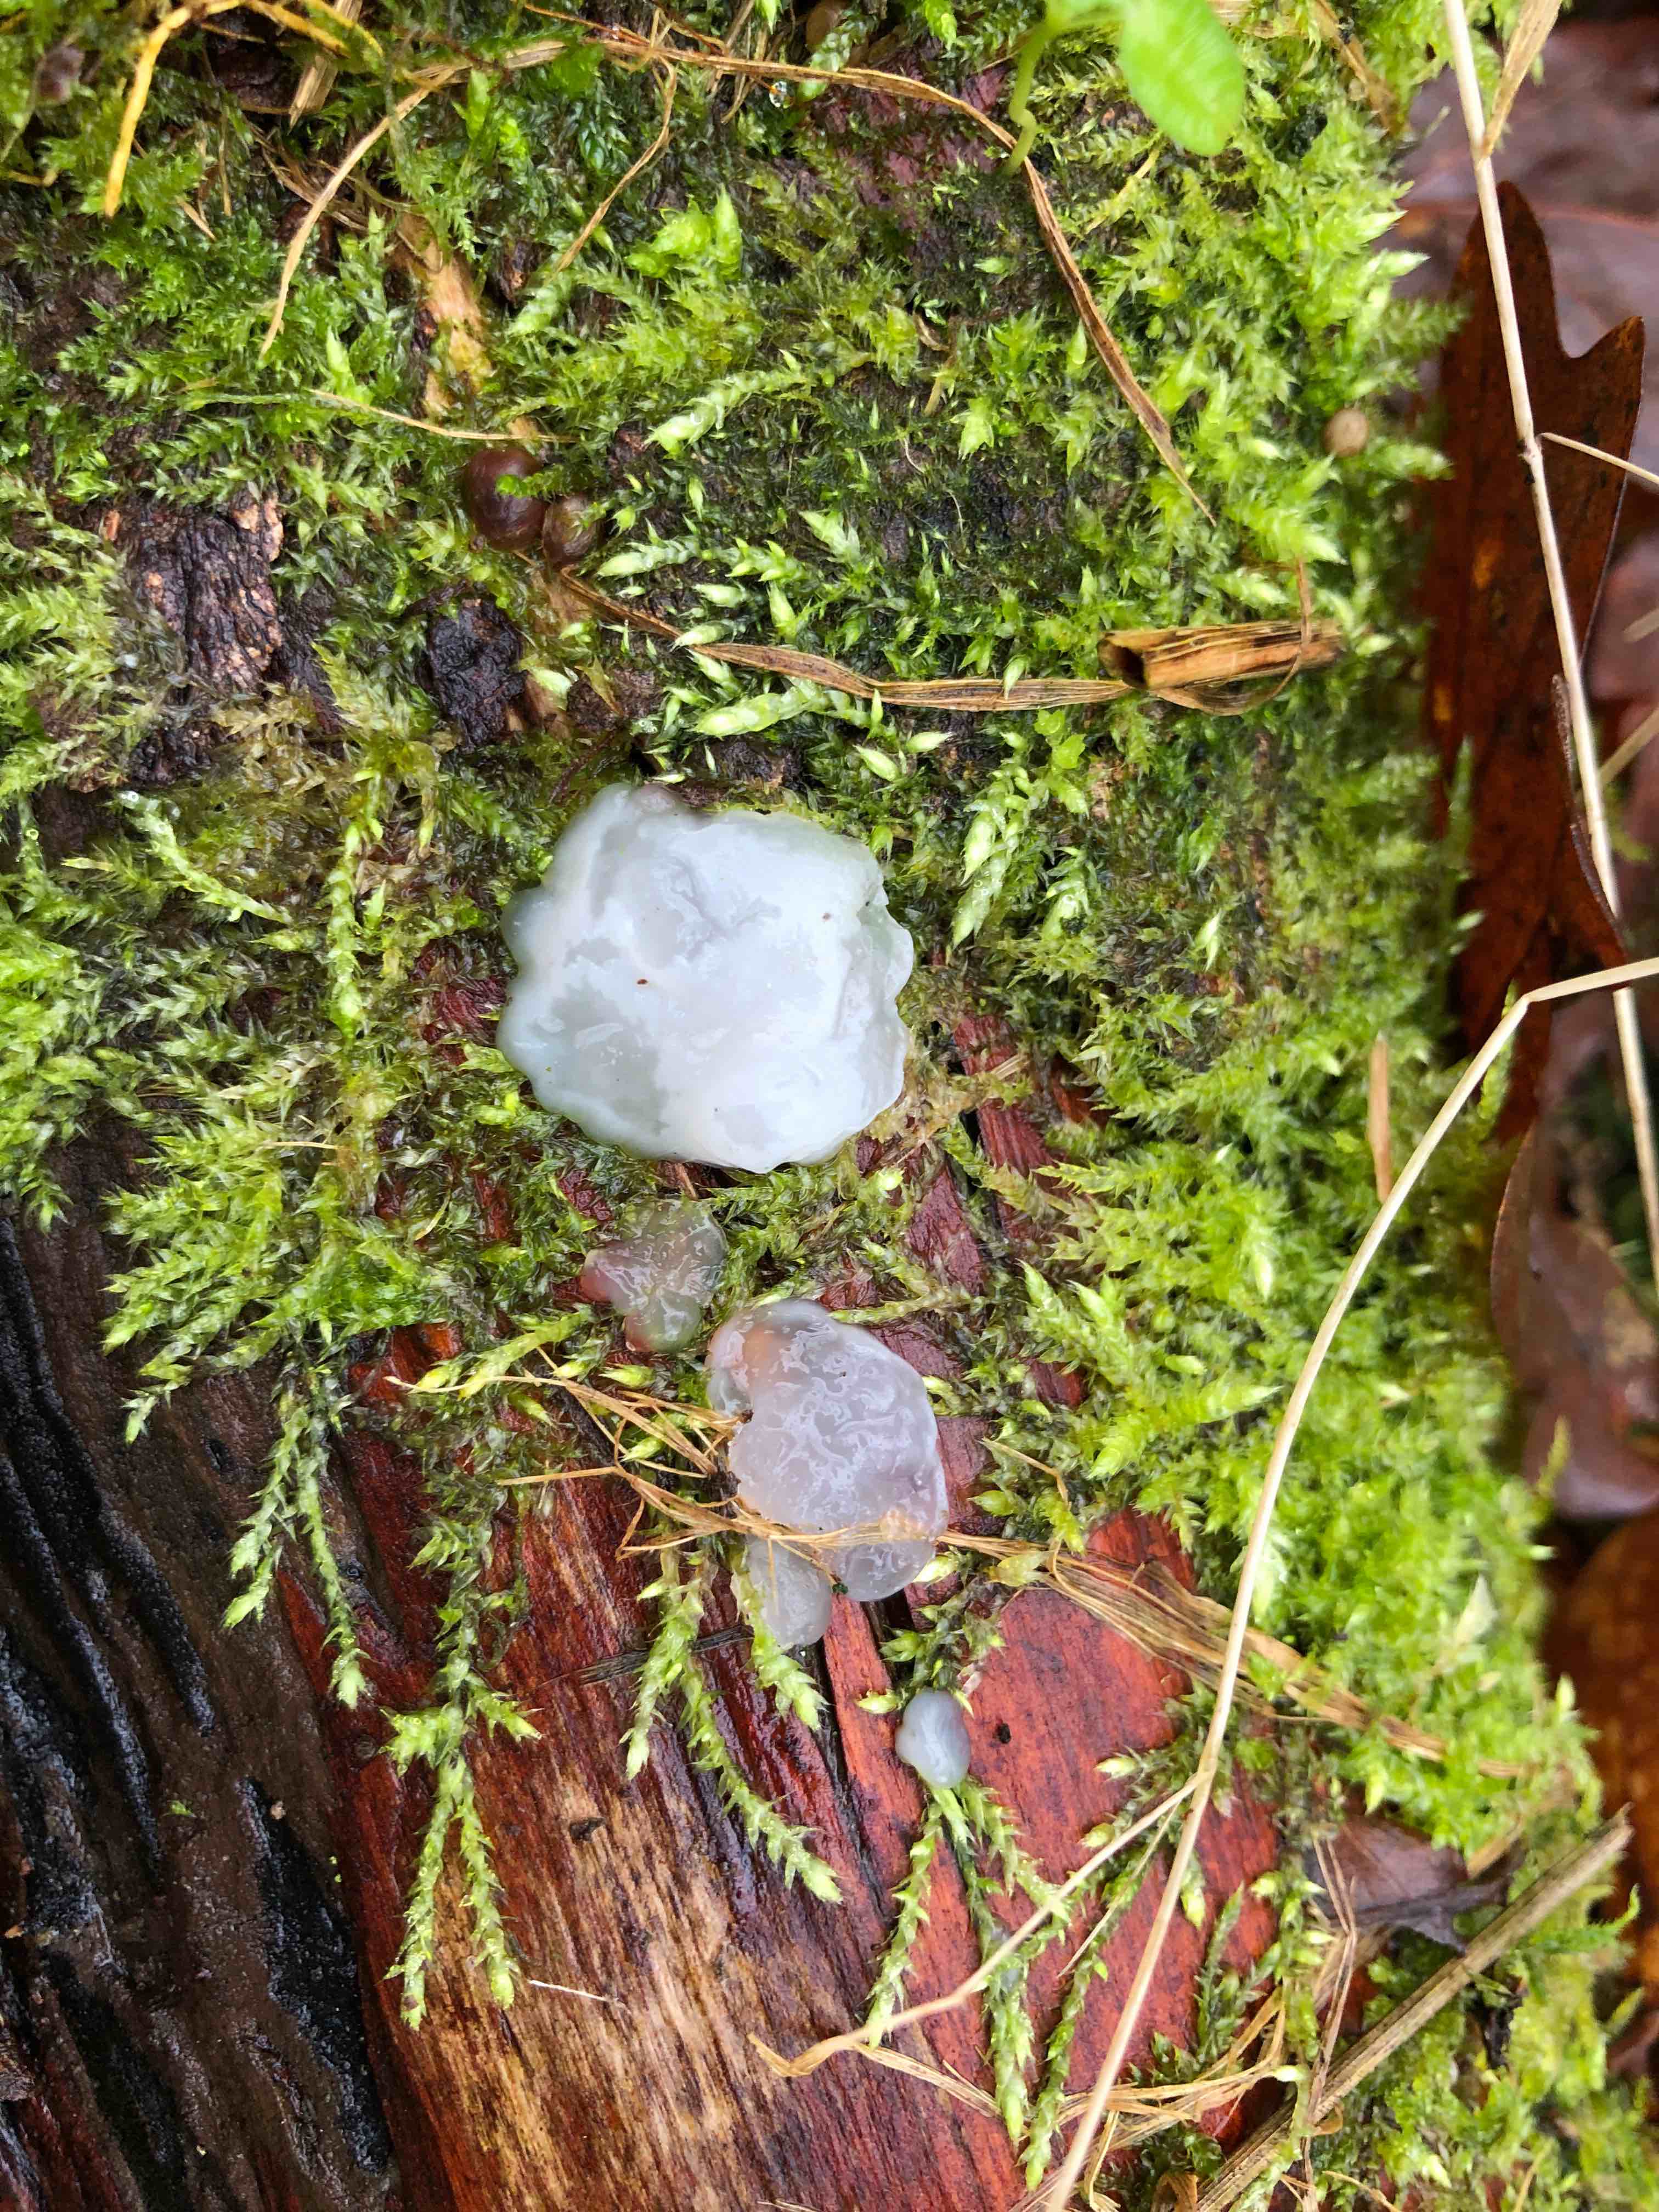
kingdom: Fungi
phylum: Basidiomycota
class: Agaricomycetes
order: Auriculariales
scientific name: Auriculariales
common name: judasøreordenen
